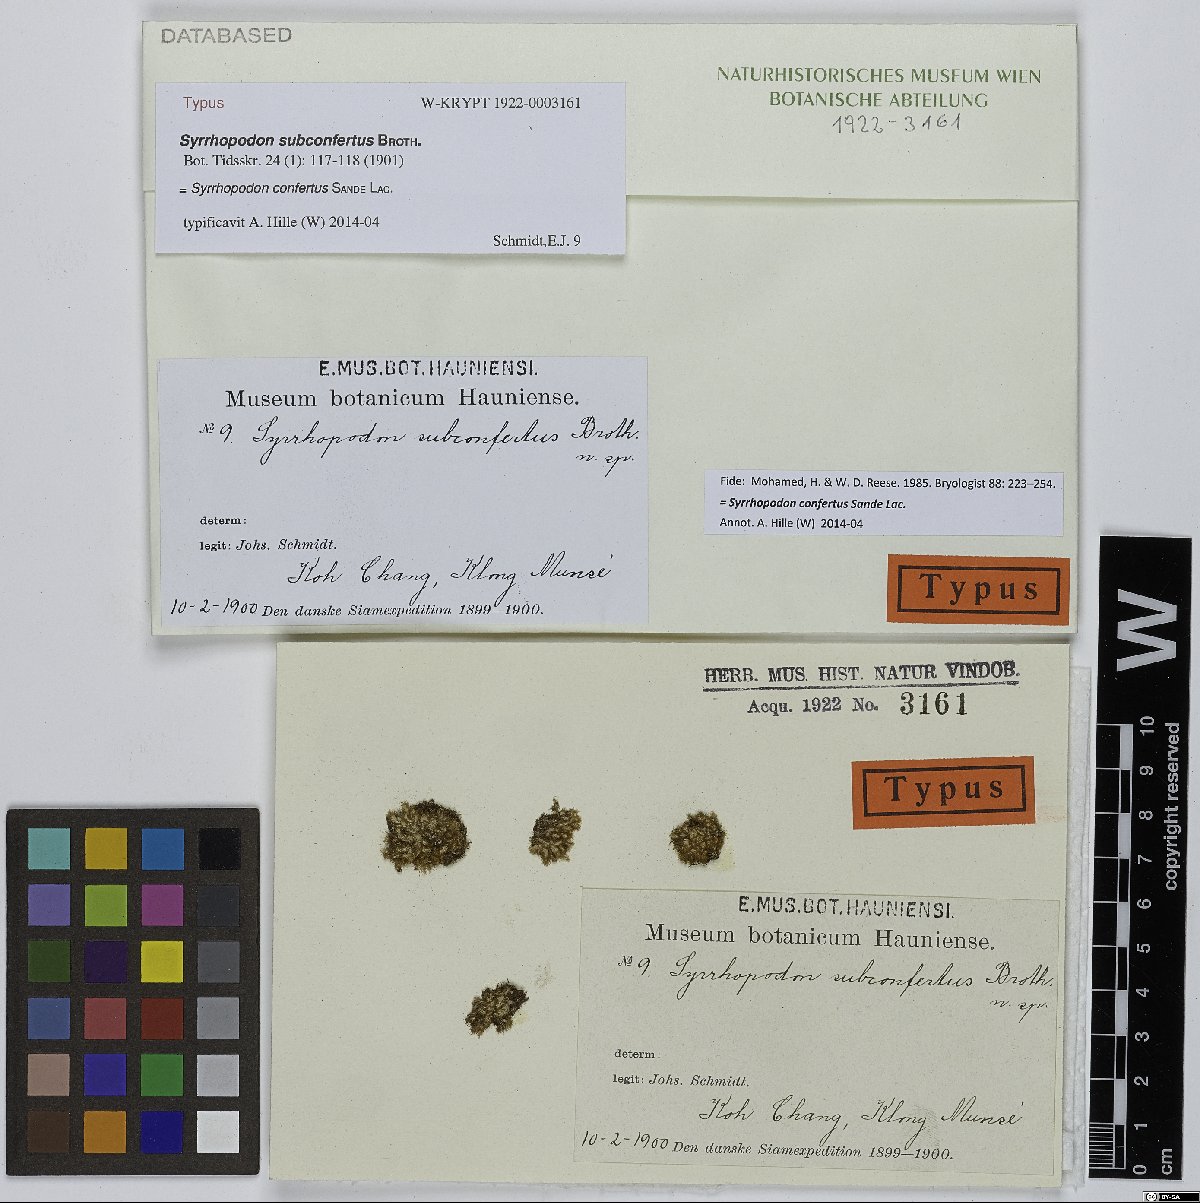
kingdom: Plantae
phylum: Bryophyta
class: Bryopsida
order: Dicranales
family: Calymperaceae
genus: Syrrhopodon
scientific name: Syrrhopodon confertus
